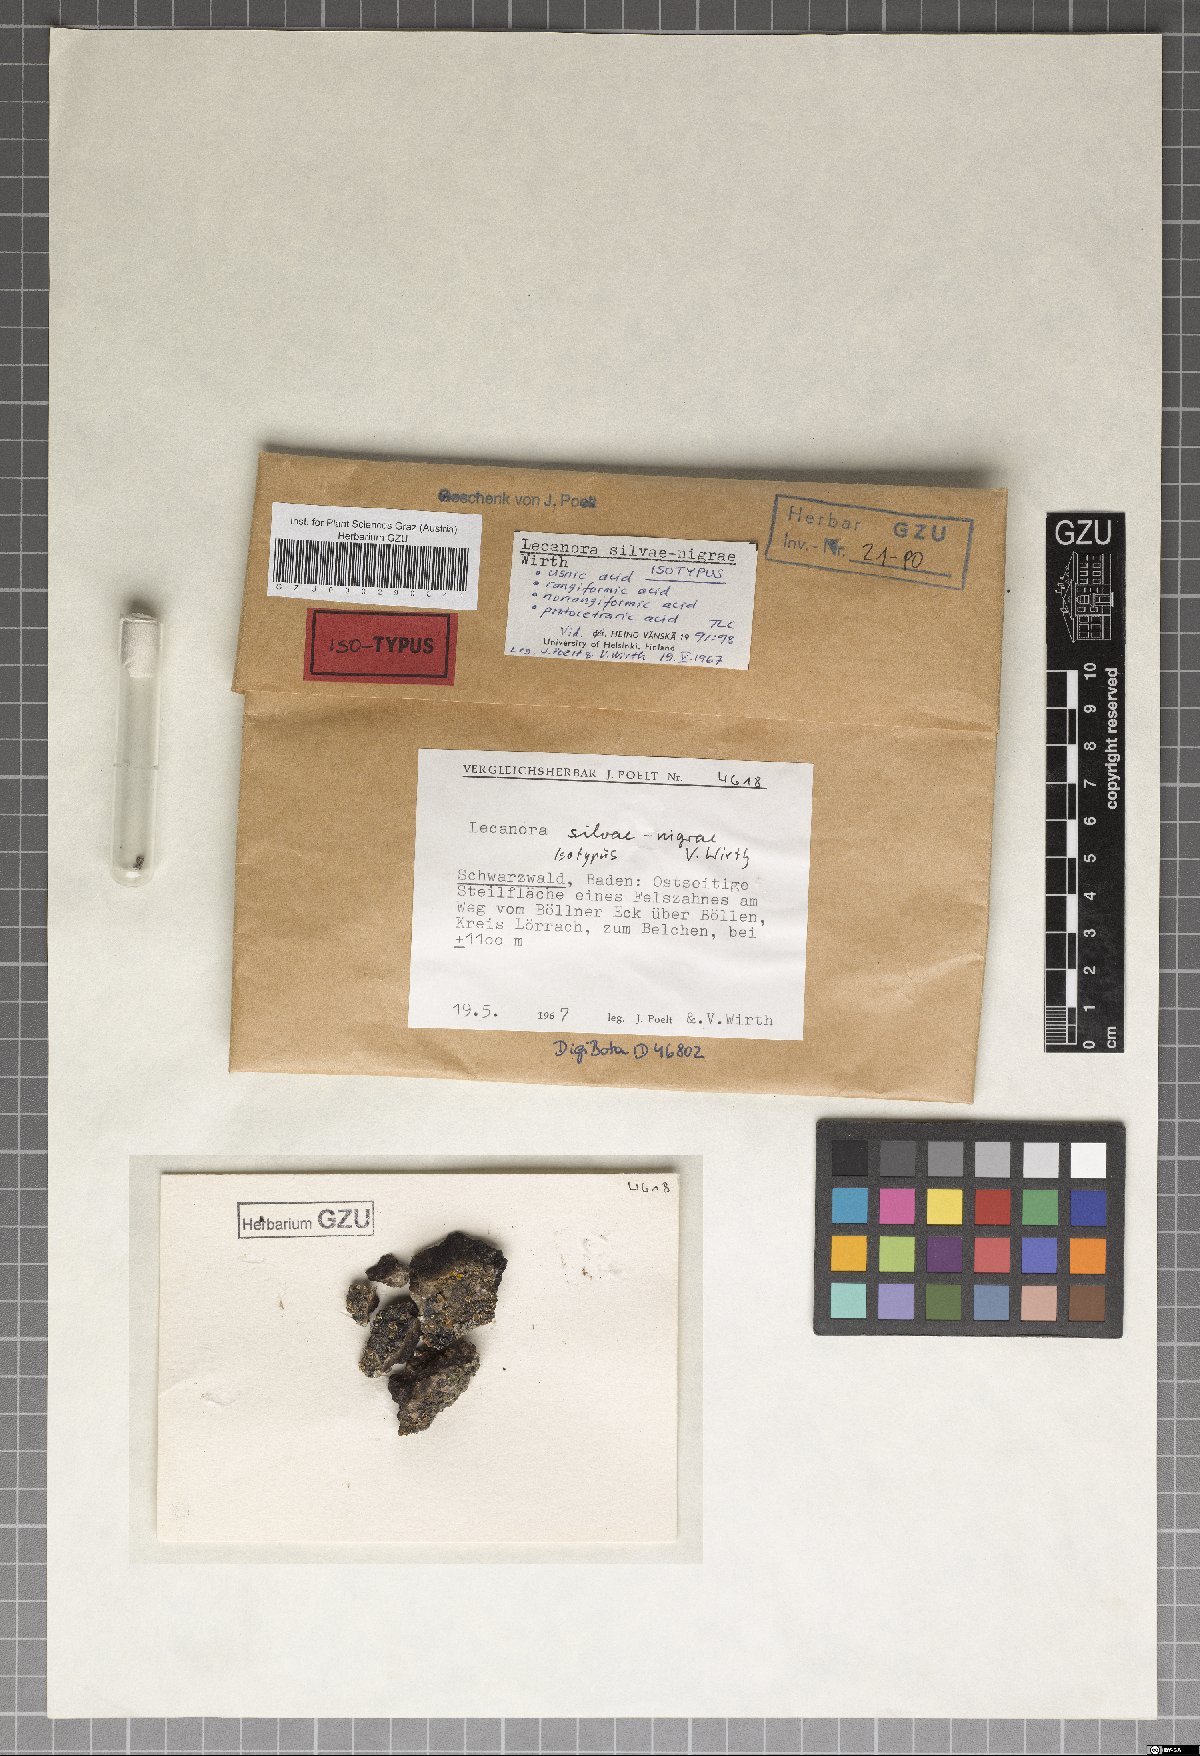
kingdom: Fungi
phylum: Ascomycota
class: Lecanoromycetes
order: Lecanorales
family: Lecanoraceae
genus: Lecanora
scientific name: Lecanora silvae-nigrae
